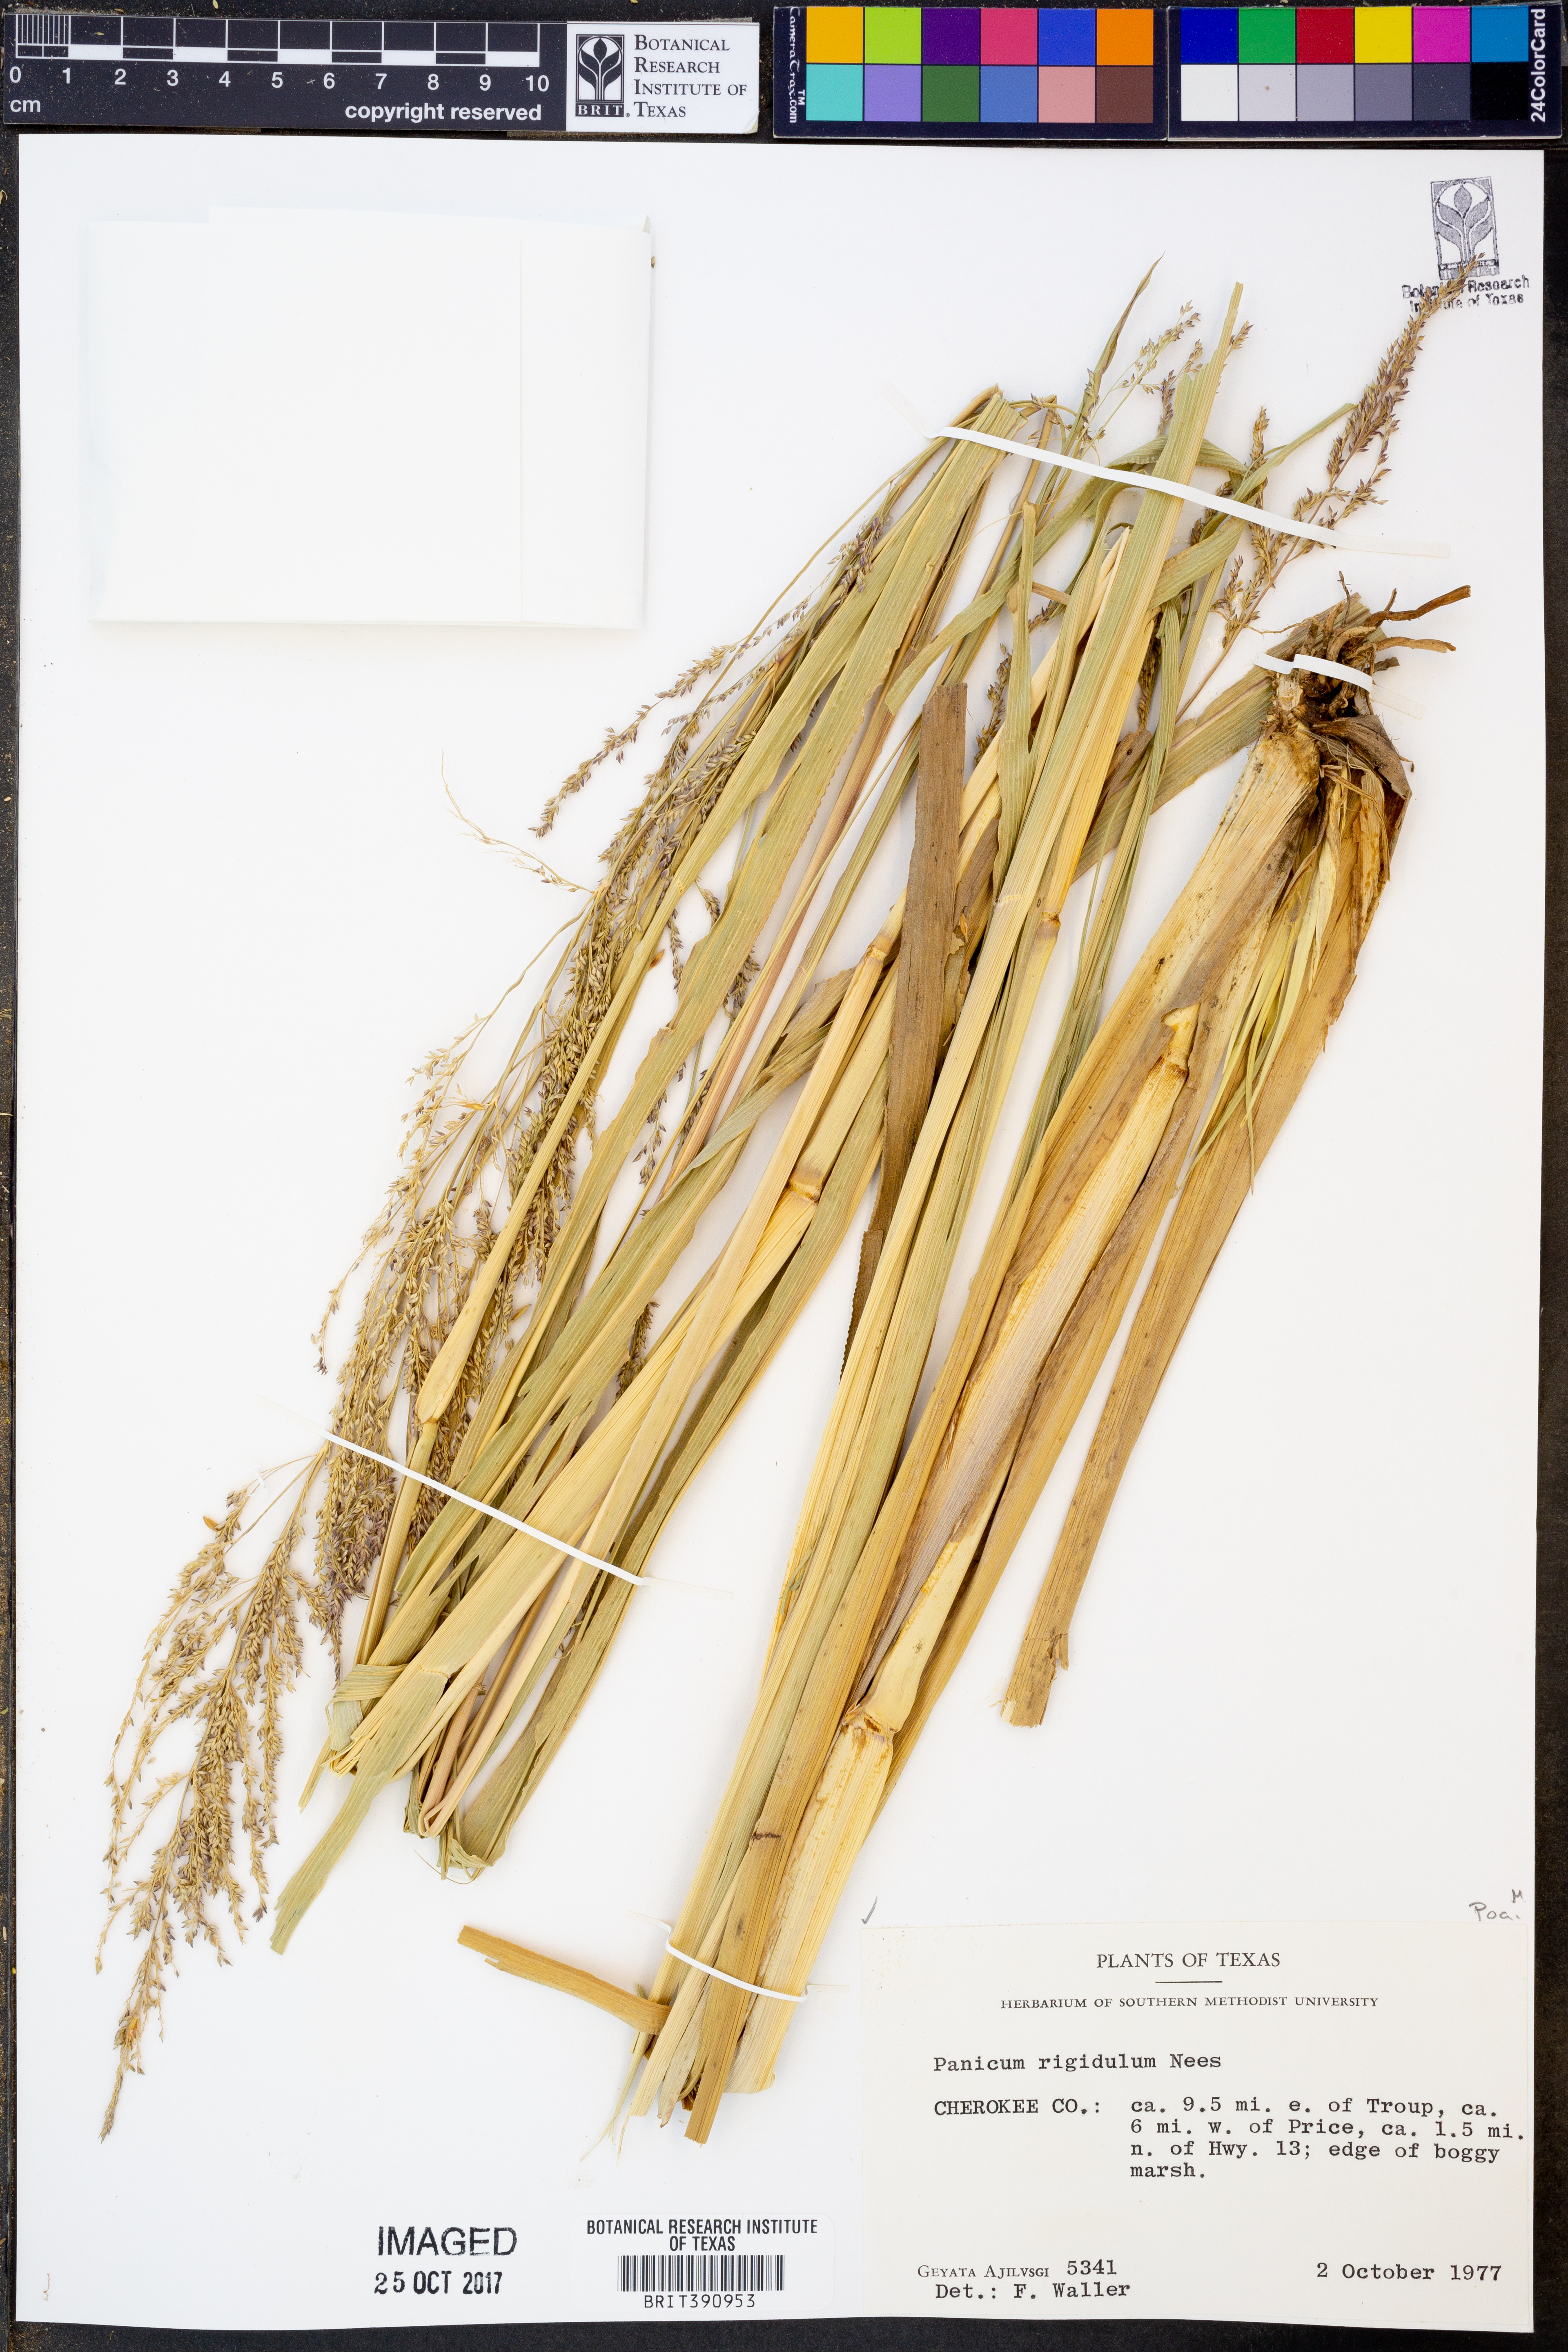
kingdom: Plantae
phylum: Tracheophyta
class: Liliopsida
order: Poales
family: Poaceae
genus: Coleataenia
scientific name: Coleataenia rigidula
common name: Redtop panicgrass
